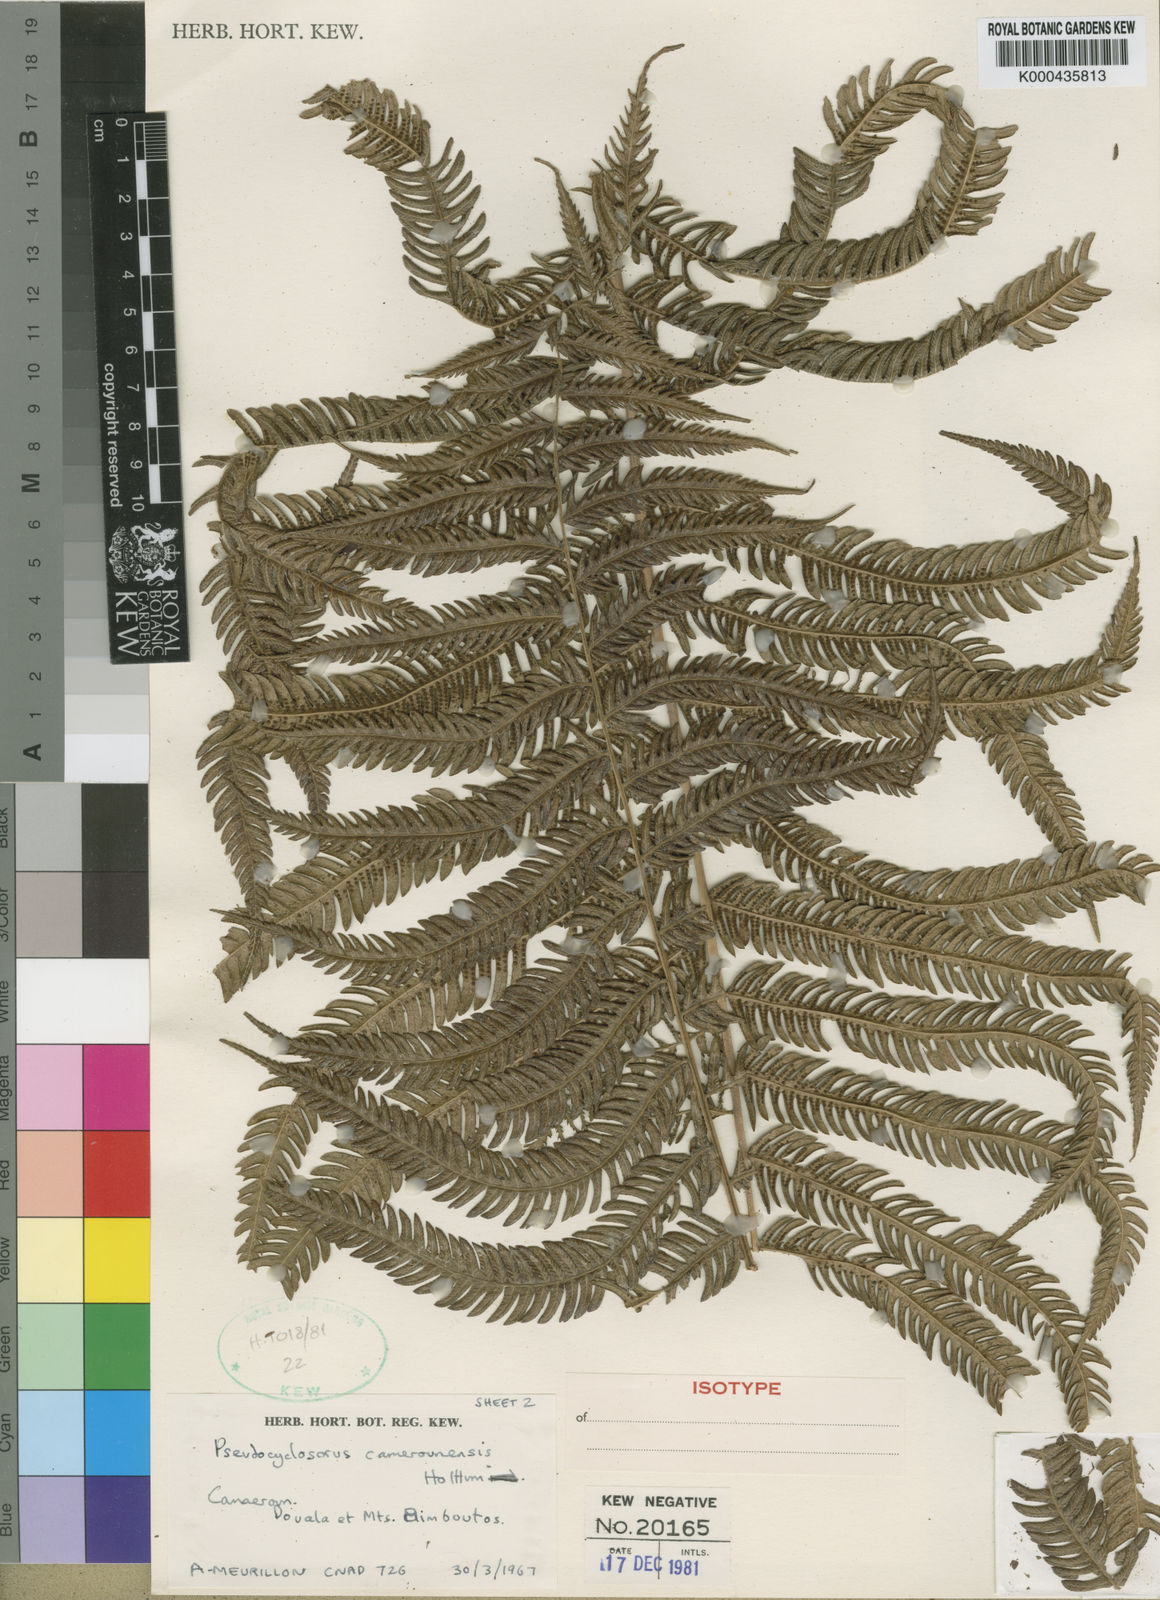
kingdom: Plantae
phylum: Tracheophyta
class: Polypodiopsida
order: Polypodiales
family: Thelypteridaceae
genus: Pseudocyclosorus
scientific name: Pseudocyclosorus camerounensis
